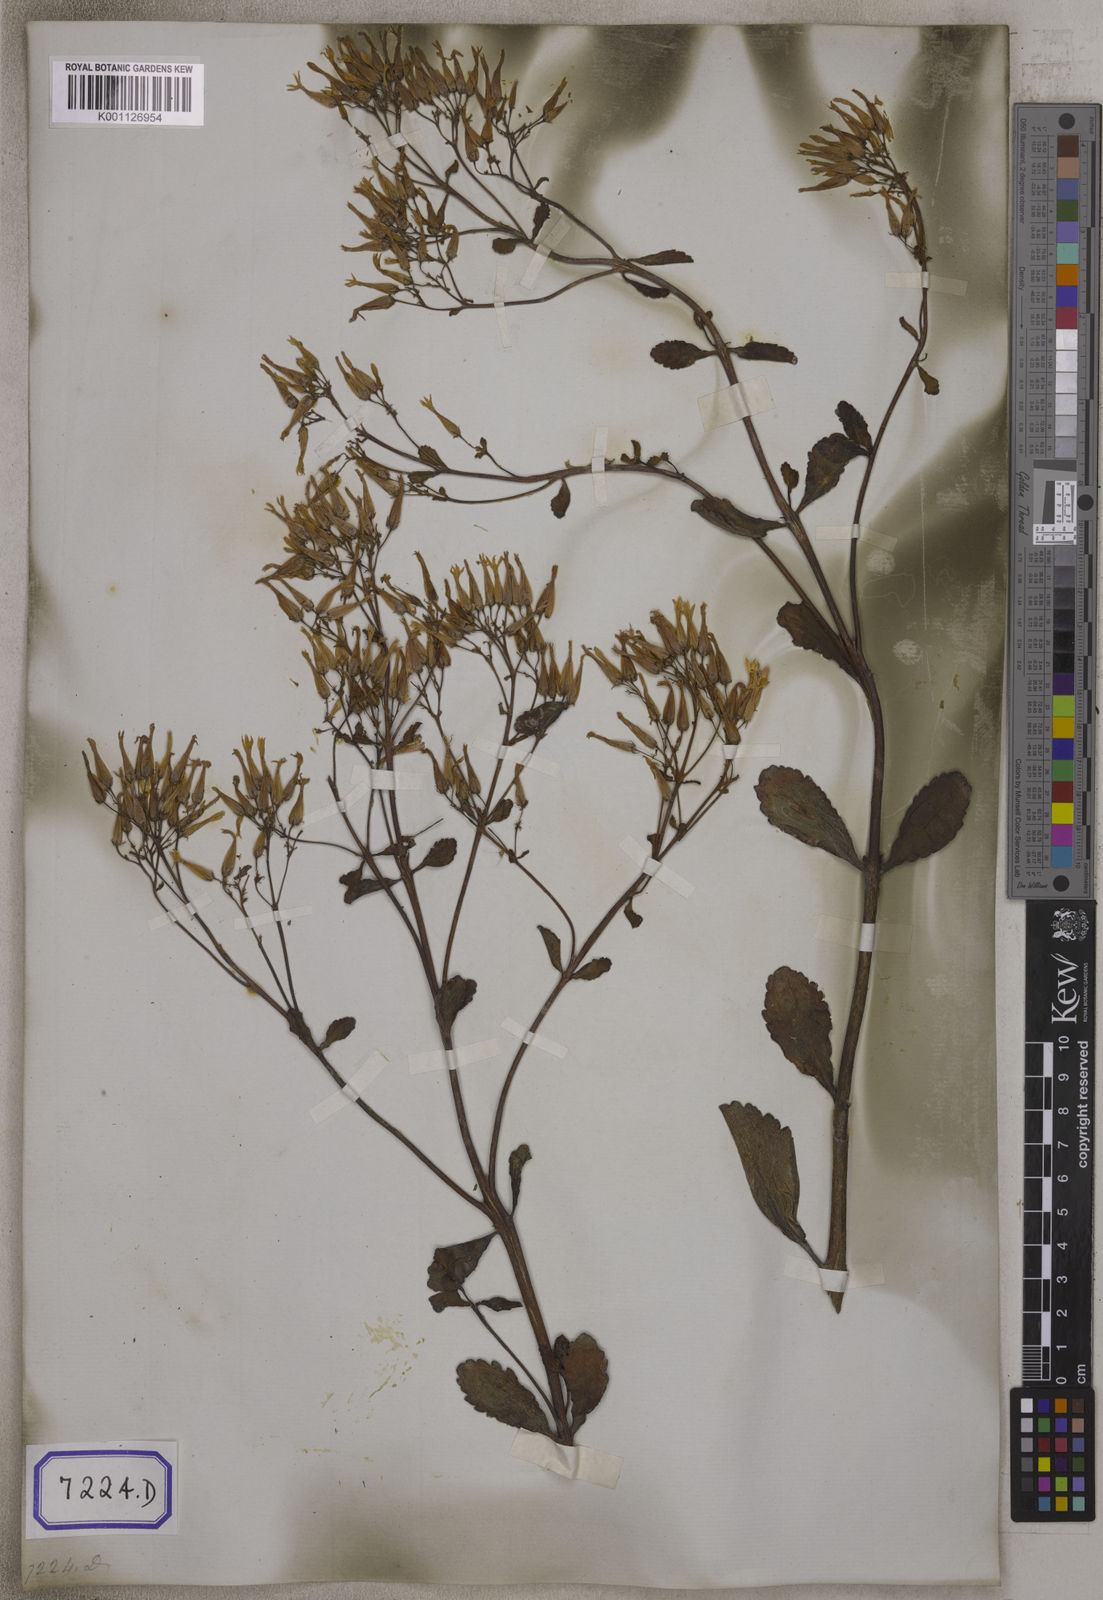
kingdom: Plantae
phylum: Tracheophyta
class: Magnoliopsida
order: Saxifragales
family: Crassulaceae
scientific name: Crassulaceae
